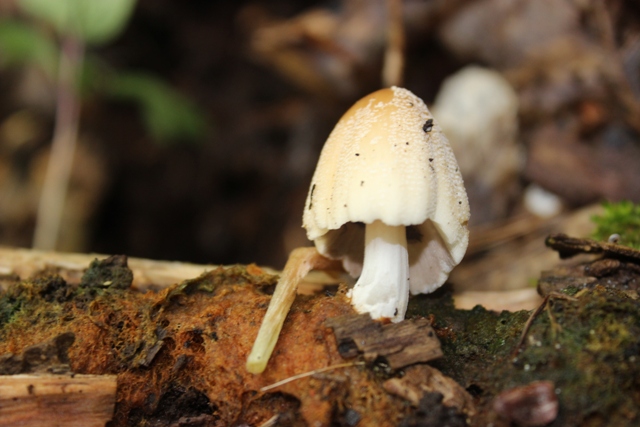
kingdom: Fungi
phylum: Basidiomycota
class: Agaricomycetes
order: Agaricales
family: Psathyrellaceae
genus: Coprinellus
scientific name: Coprinellus domesticus
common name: hus-blækhat
